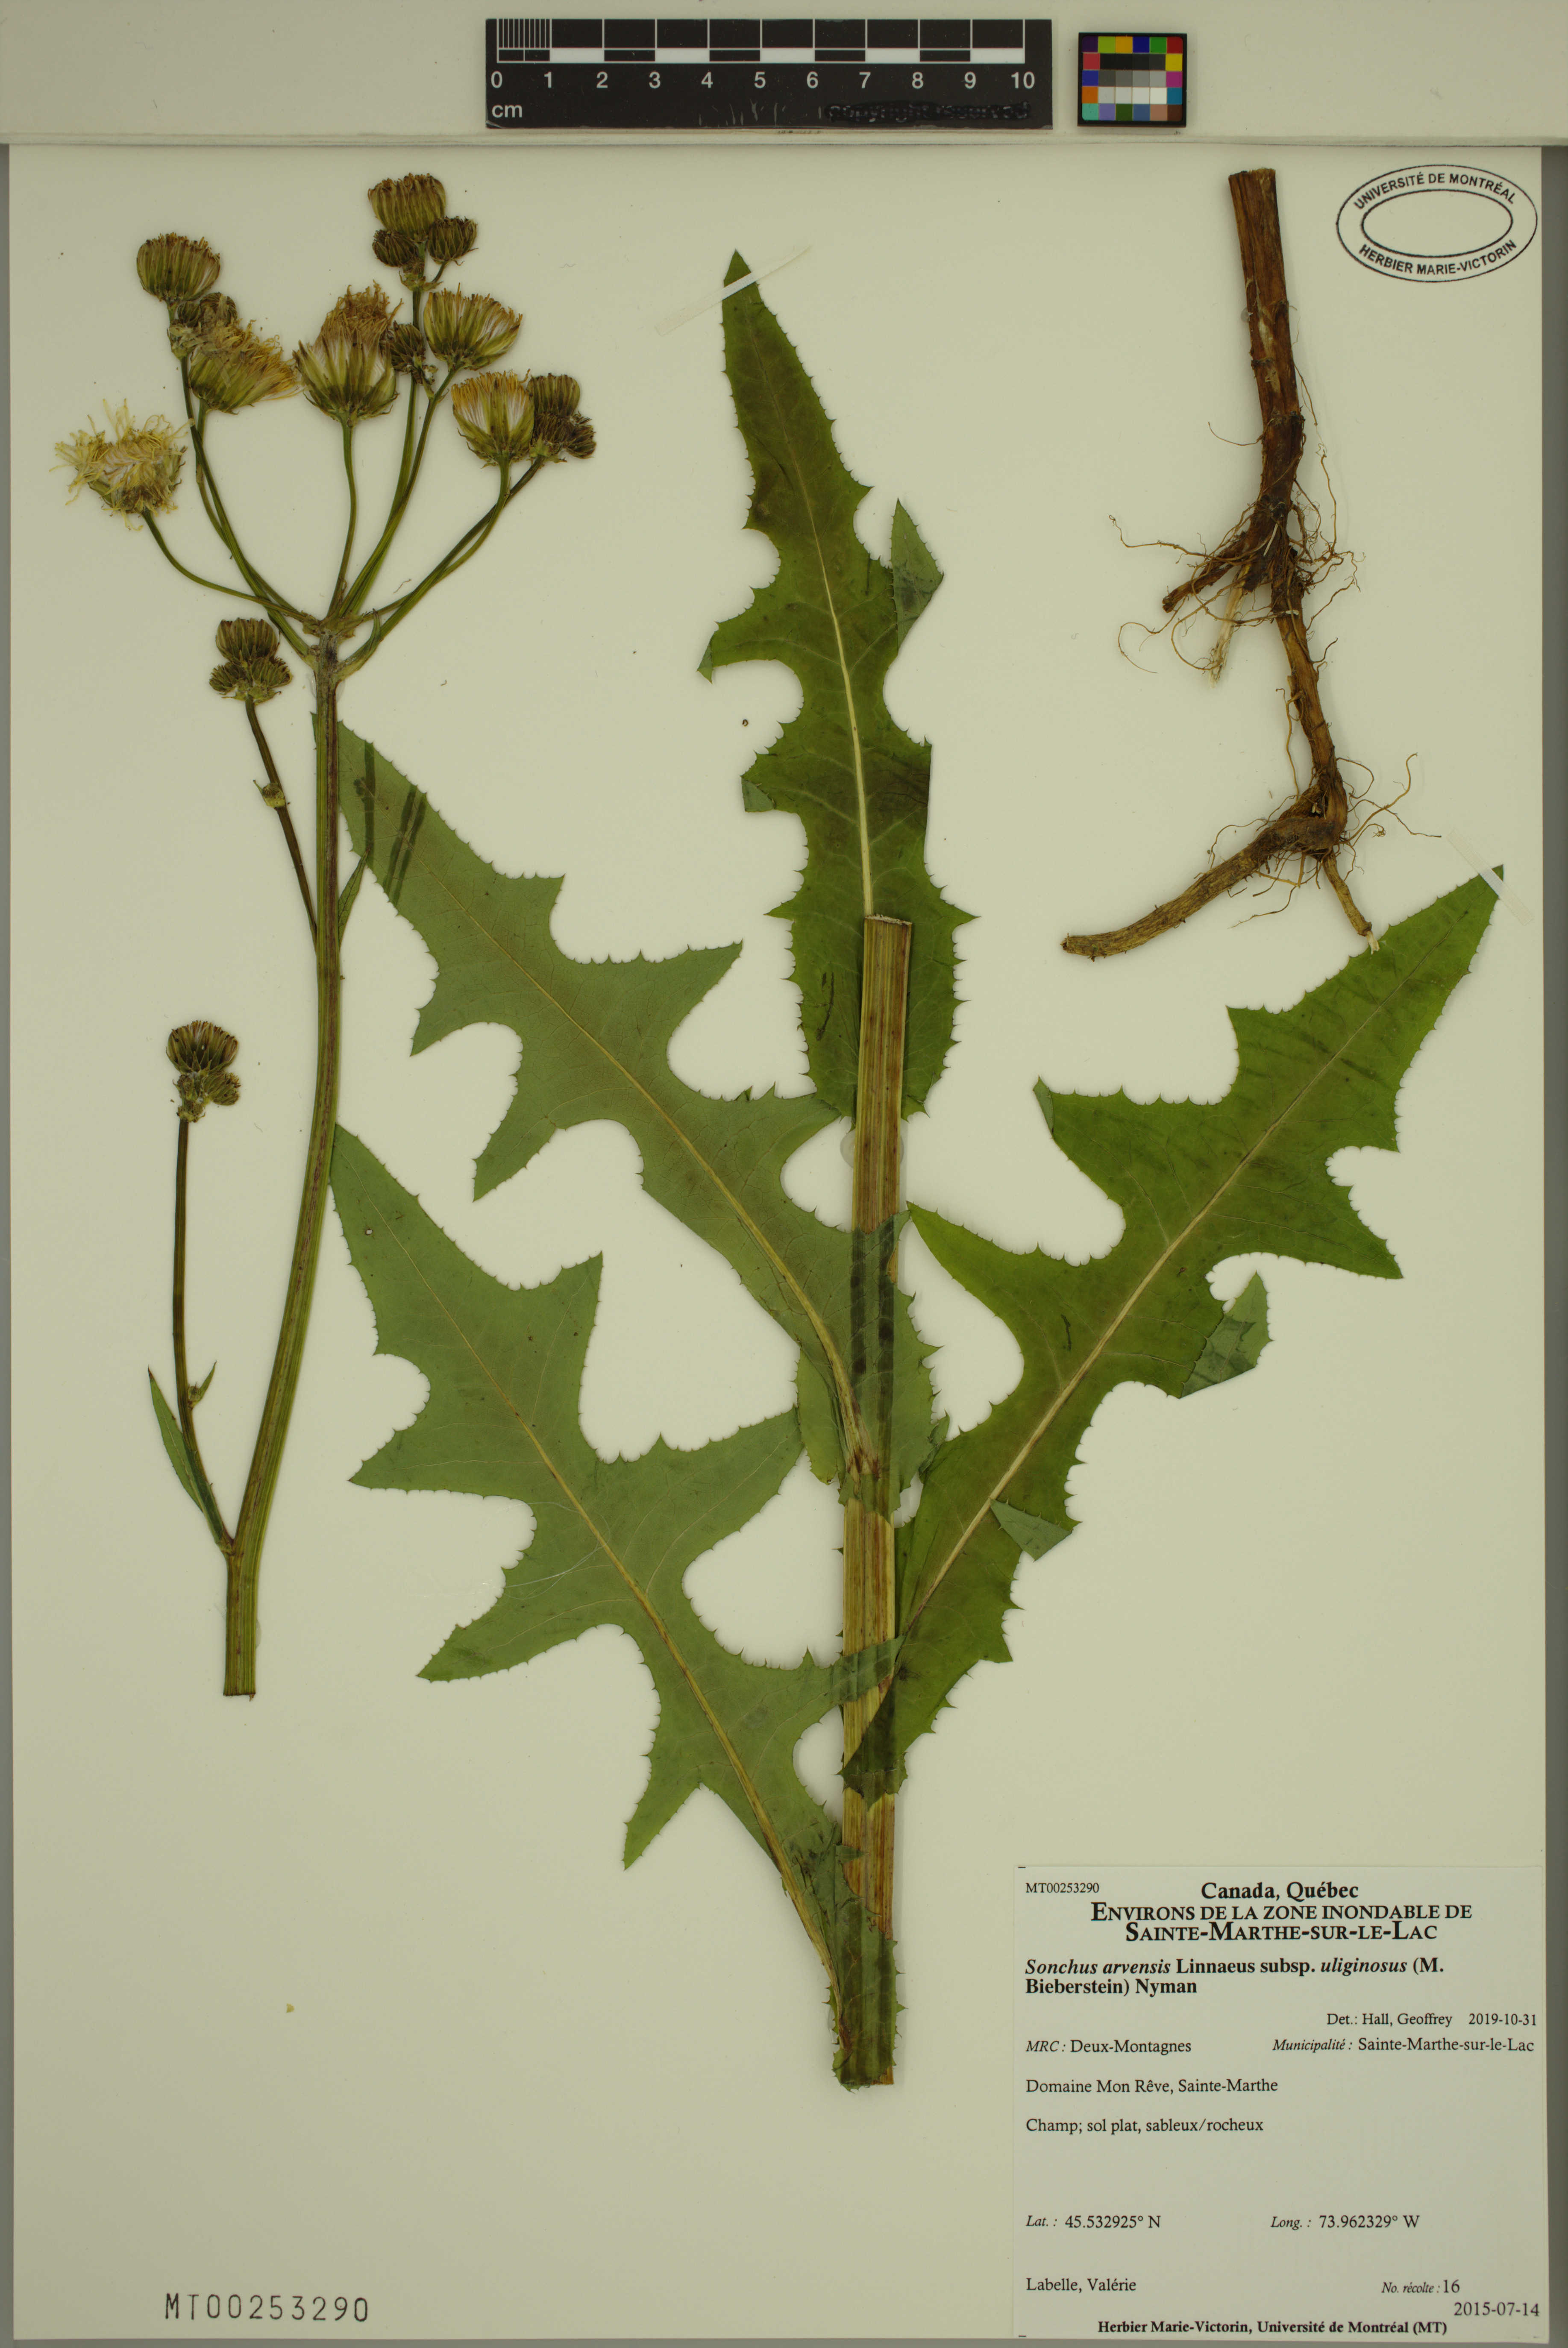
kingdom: Plantae
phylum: Tracheophyta
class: Magnoliopsida
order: Asterales
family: Asteraceae
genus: Sonchus
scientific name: Sonchus arvensis
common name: Perennial sow-thistle
